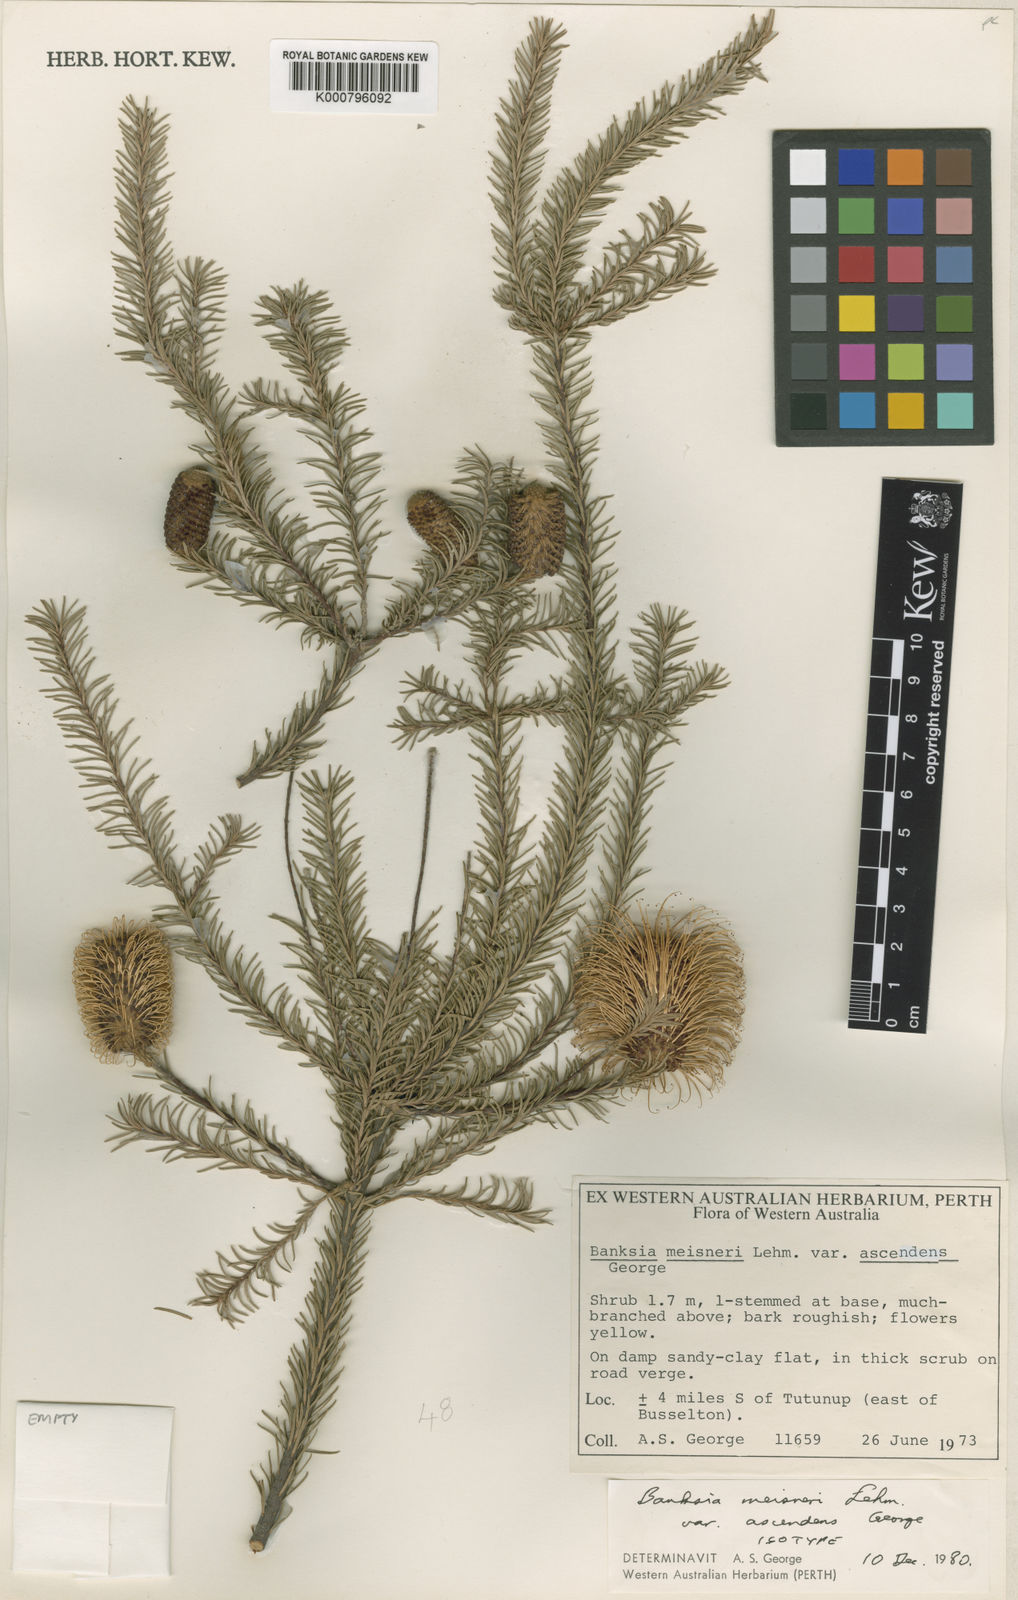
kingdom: Plantae
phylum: Tracheophyta
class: Magnoliopsida
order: Proteales
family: Proteaceae
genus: Banksia
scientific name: Banksia meisneri
